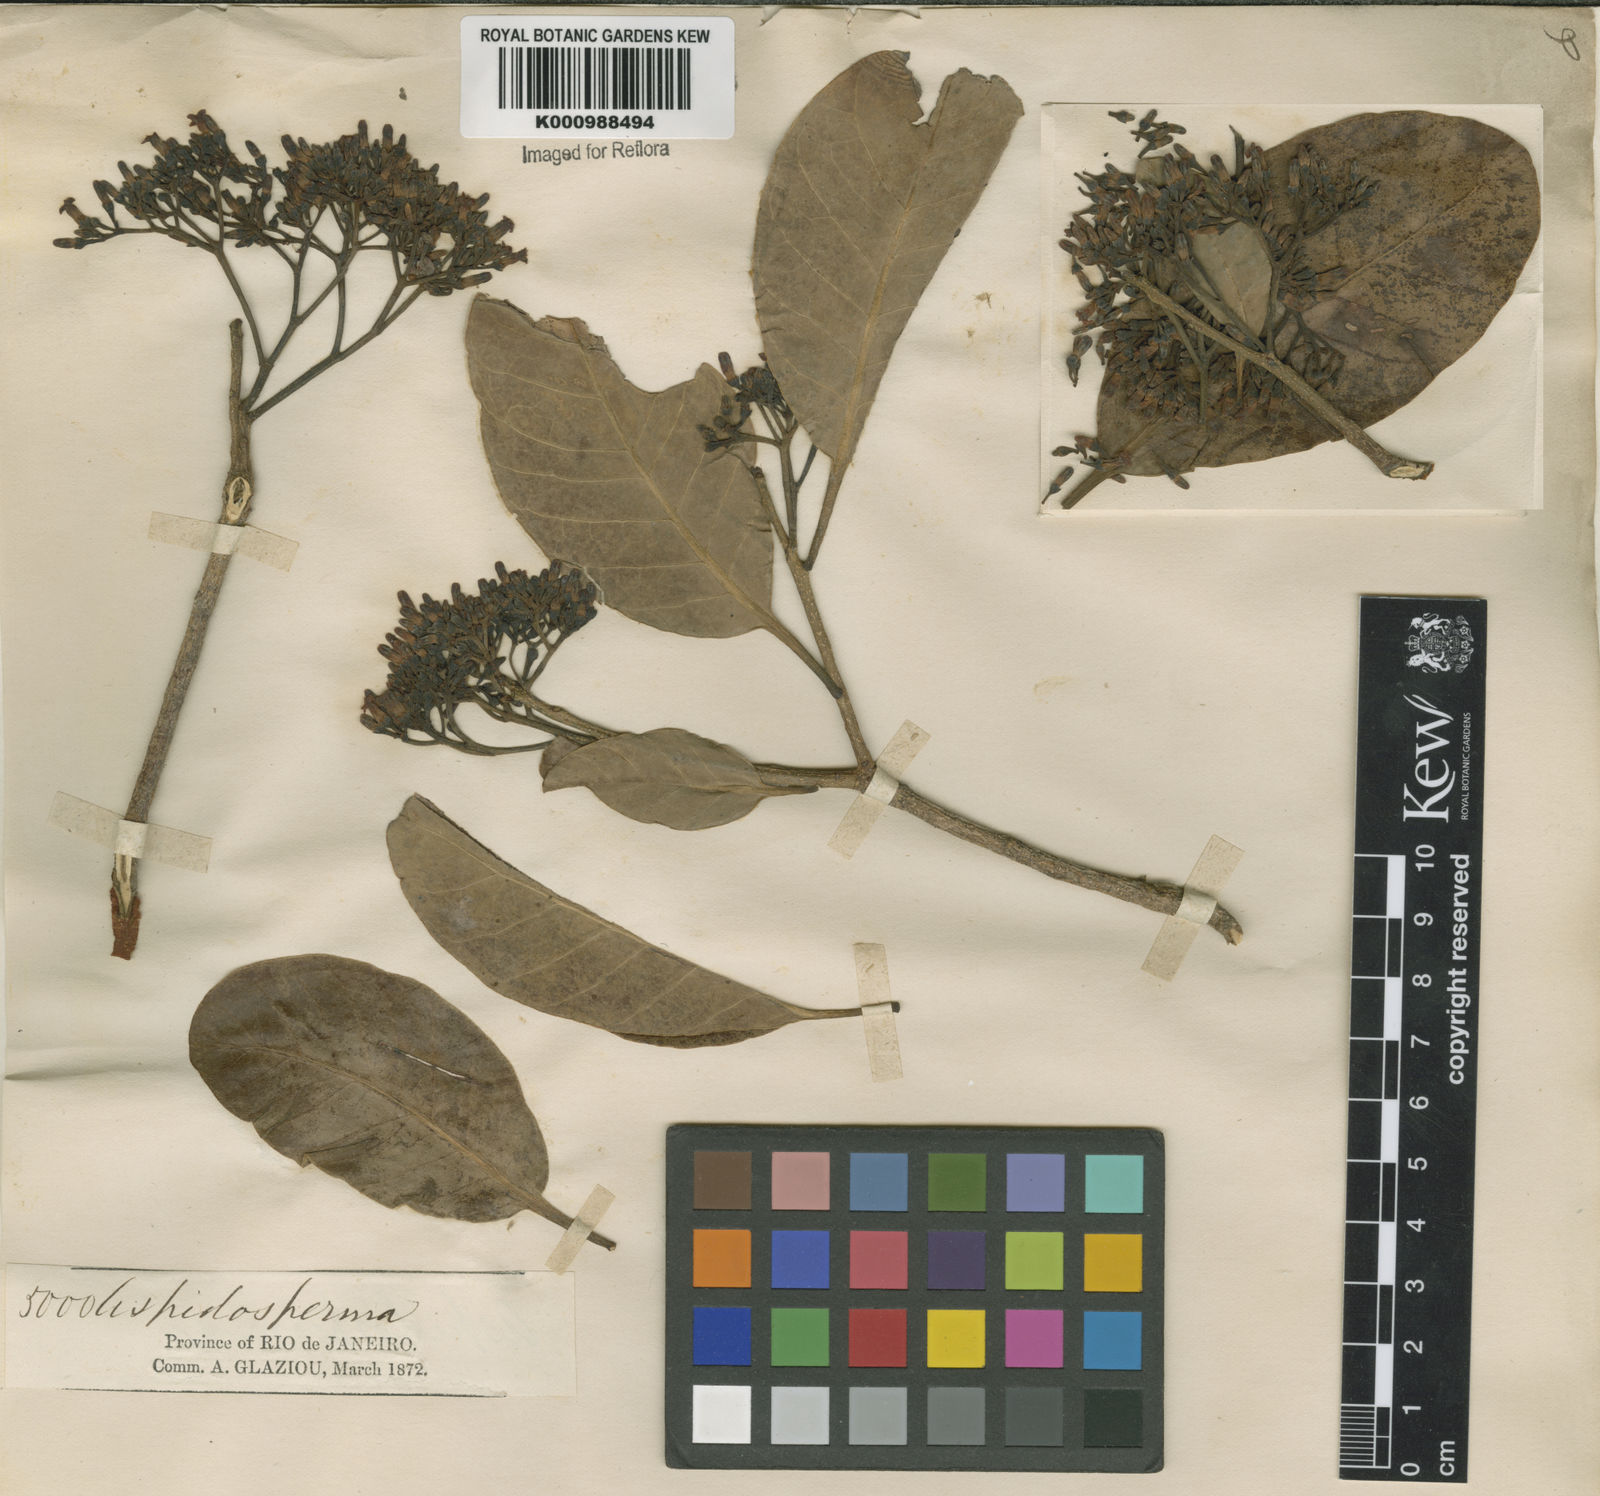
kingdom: Plantae
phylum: Tracheophyta
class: Magnoliopsida
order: Gentianales
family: Apocynaceae
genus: Aspidosperma
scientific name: Aspidosperma pyrifolium
